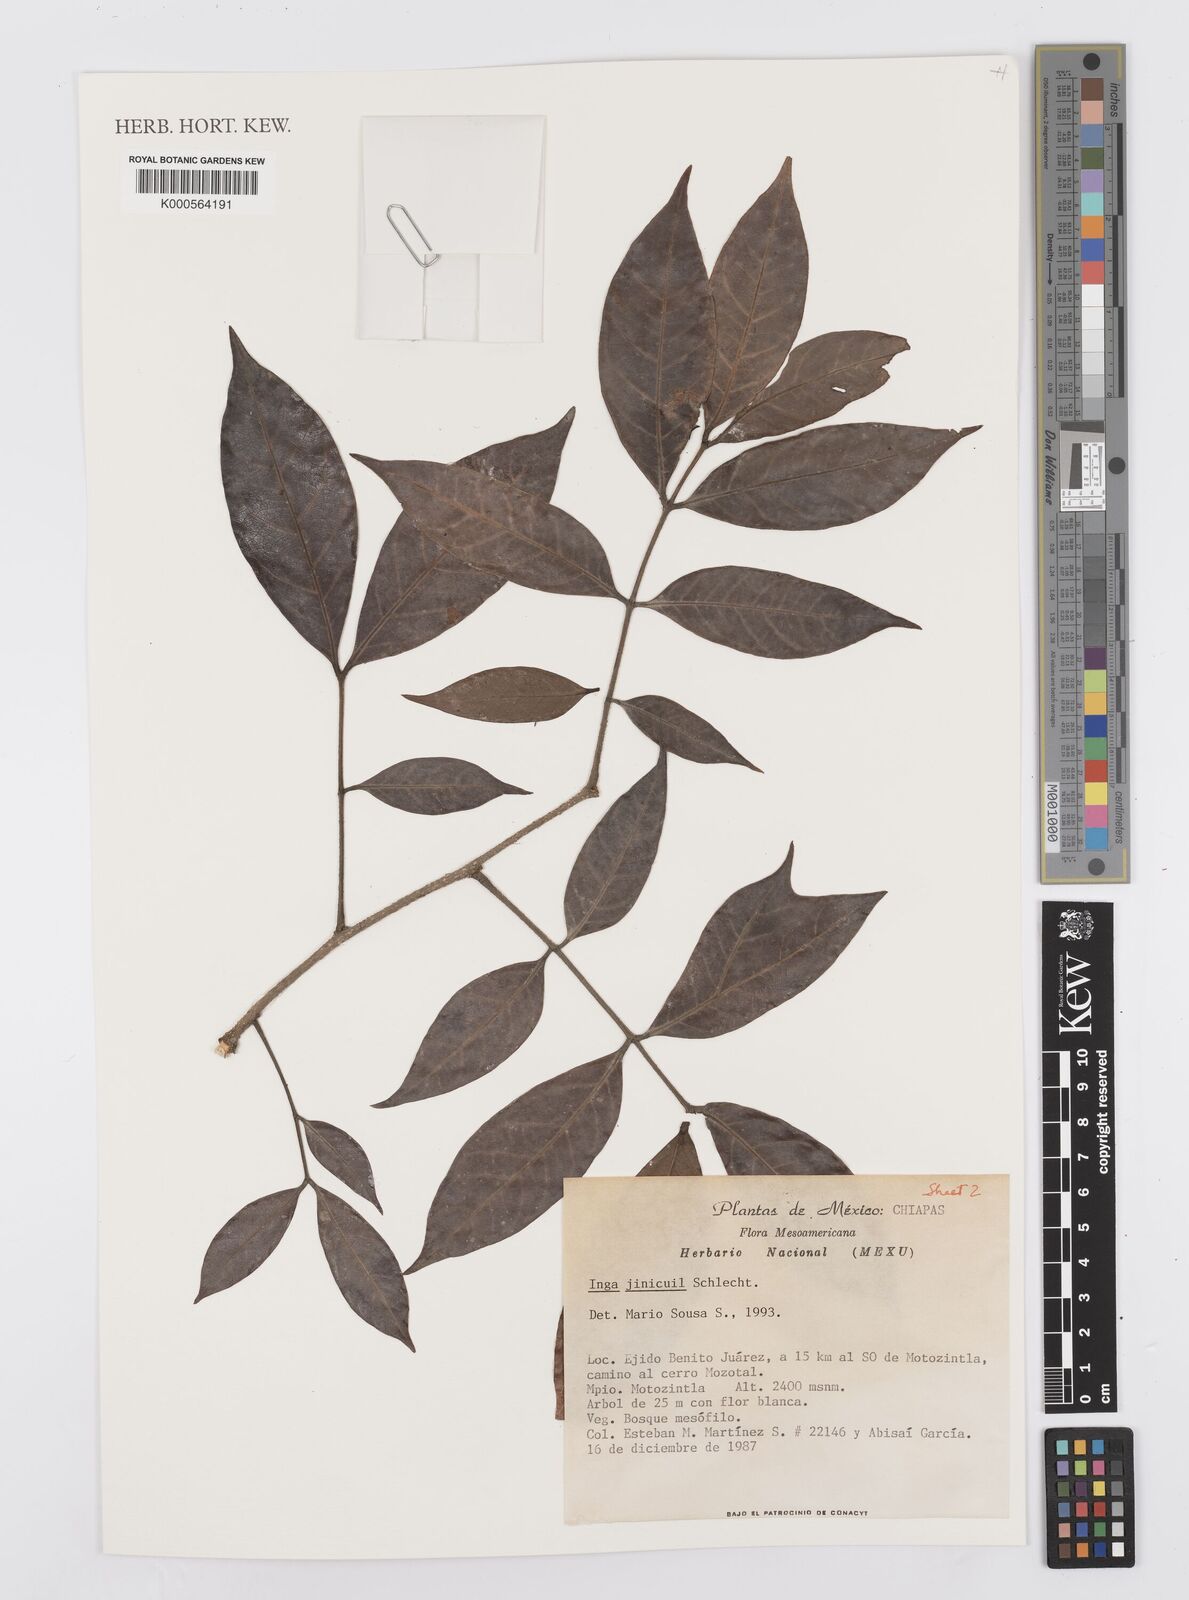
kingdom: Plantae
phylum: Tracheophyta
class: Magnoliopsida
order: Fabales
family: Fabaceae
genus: Inga
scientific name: Inga inicuil
